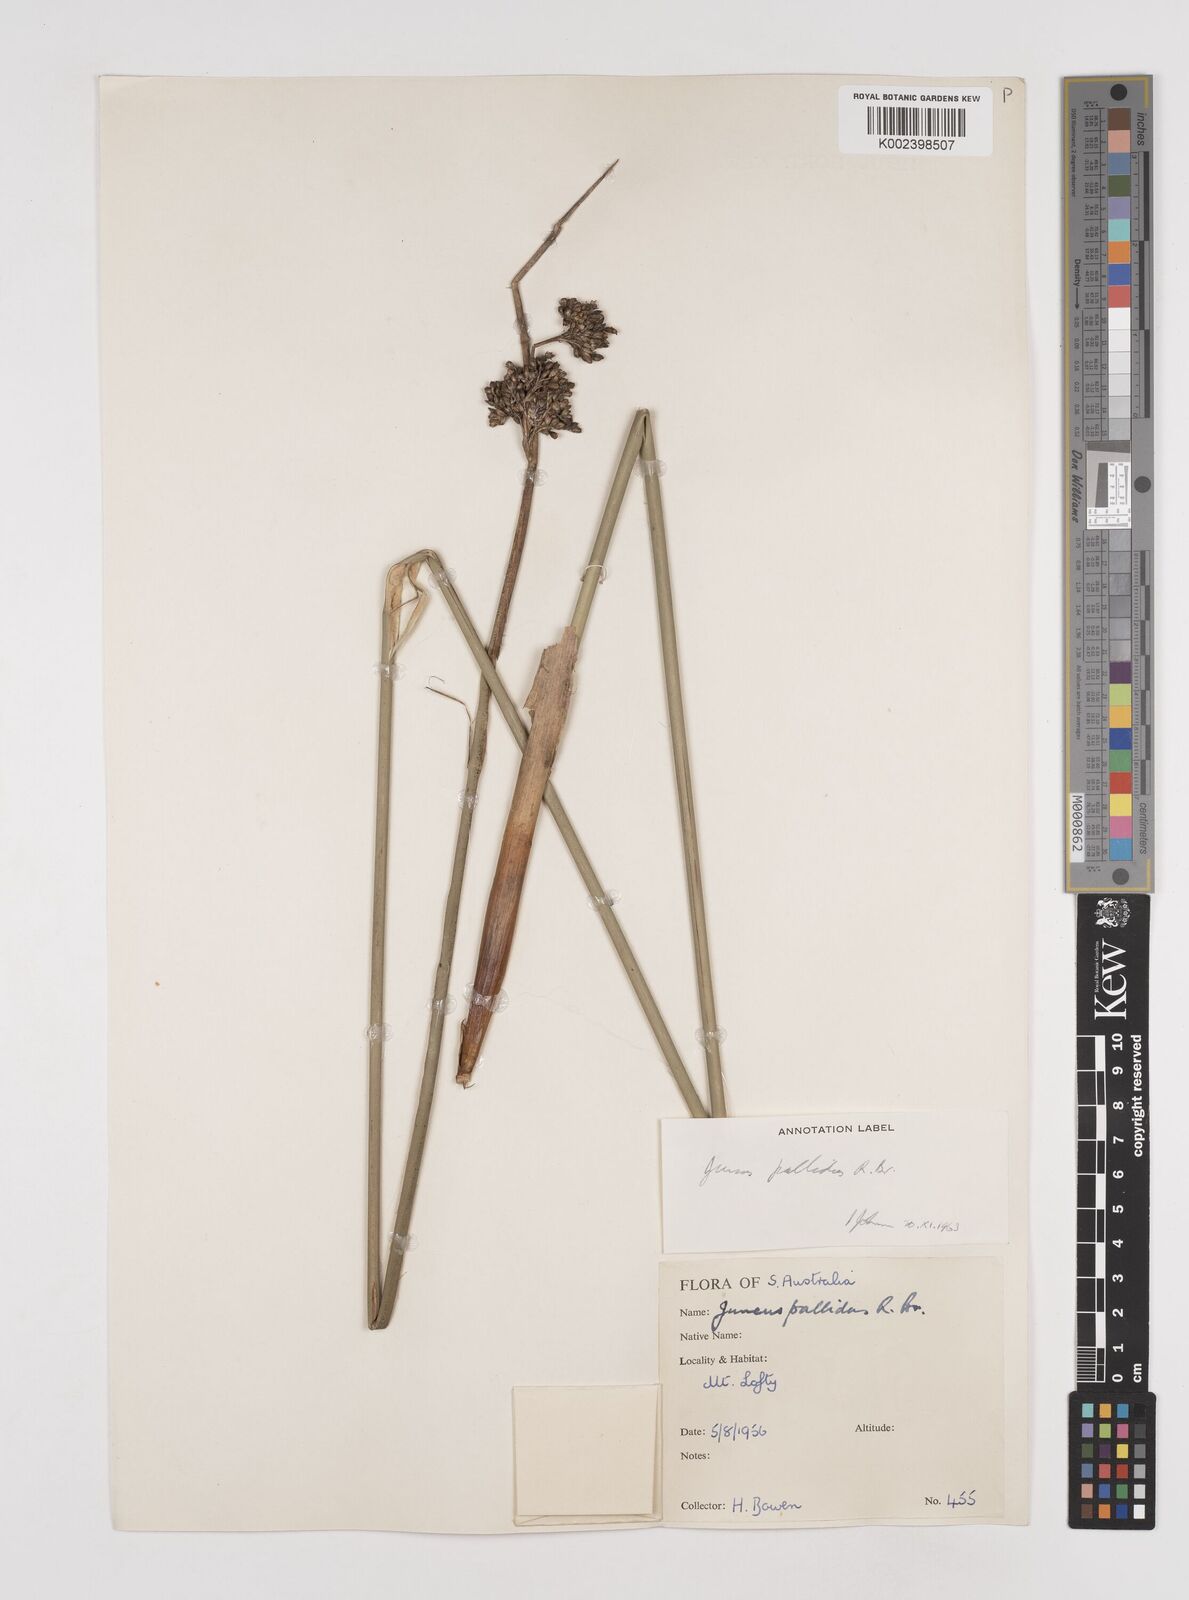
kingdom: Plantae
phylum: Tracheophyta
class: Liliopsida
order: Poales
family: Juncaceae
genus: Juncus
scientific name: Juncus pallidus
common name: Great soft-rush
